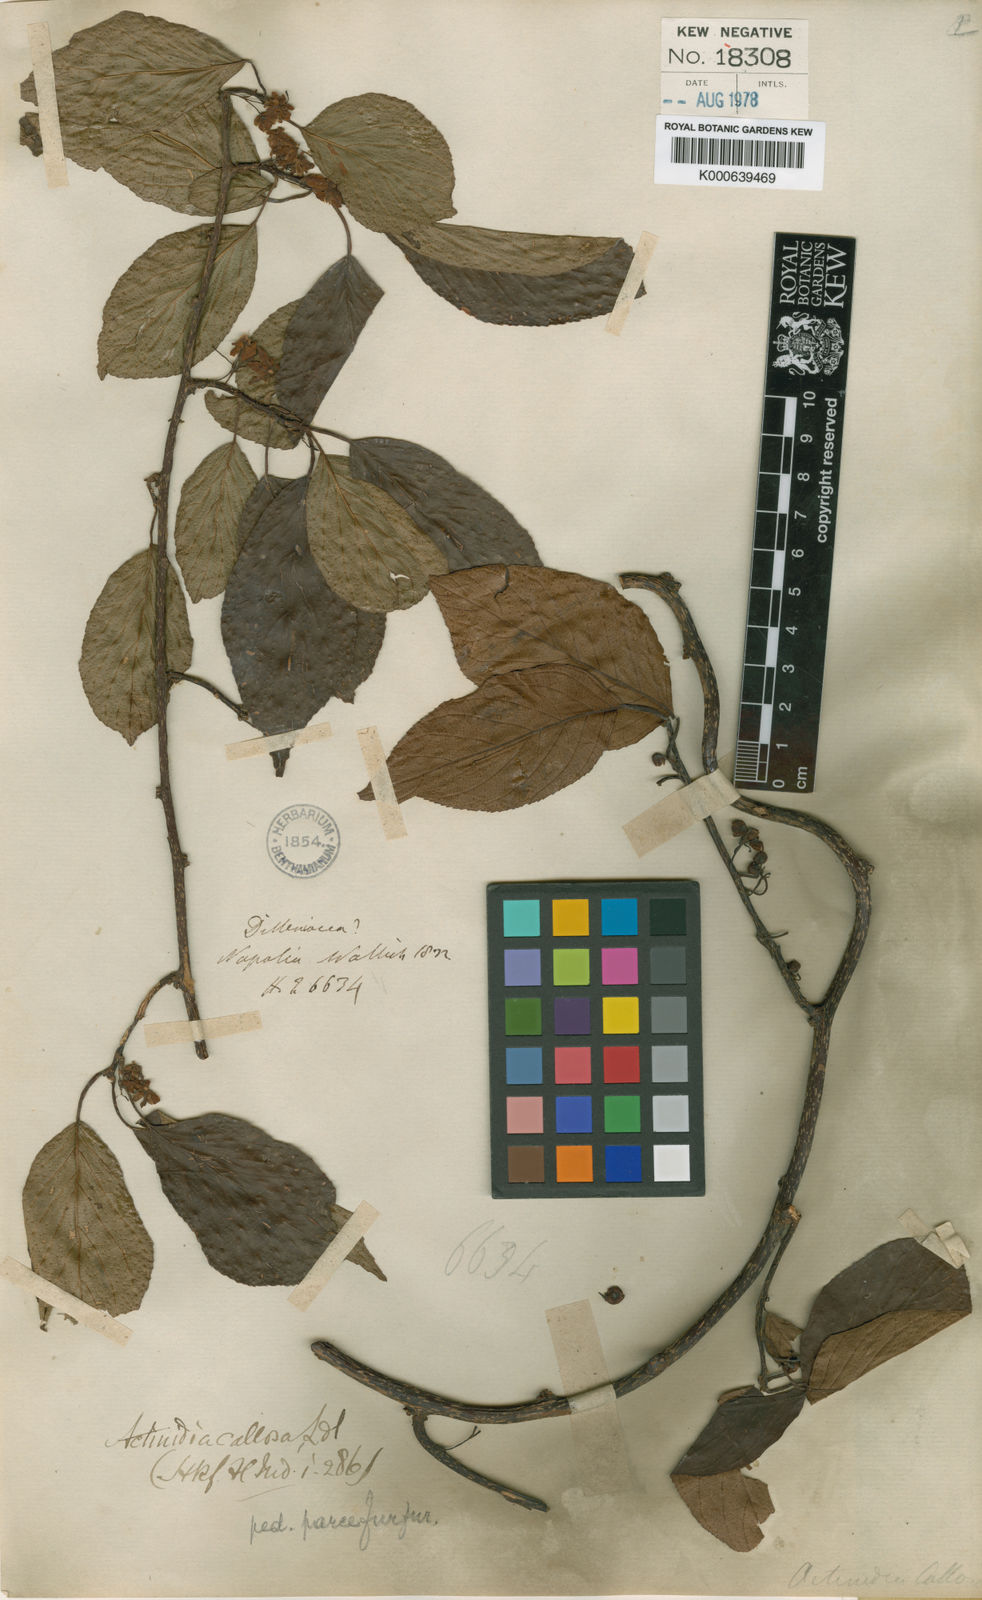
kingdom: Plantae
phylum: Tracheophyta
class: Magnoliopsida
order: Ericales
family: Actinidiaceae
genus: Actinidia
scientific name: Actinidia callosa
